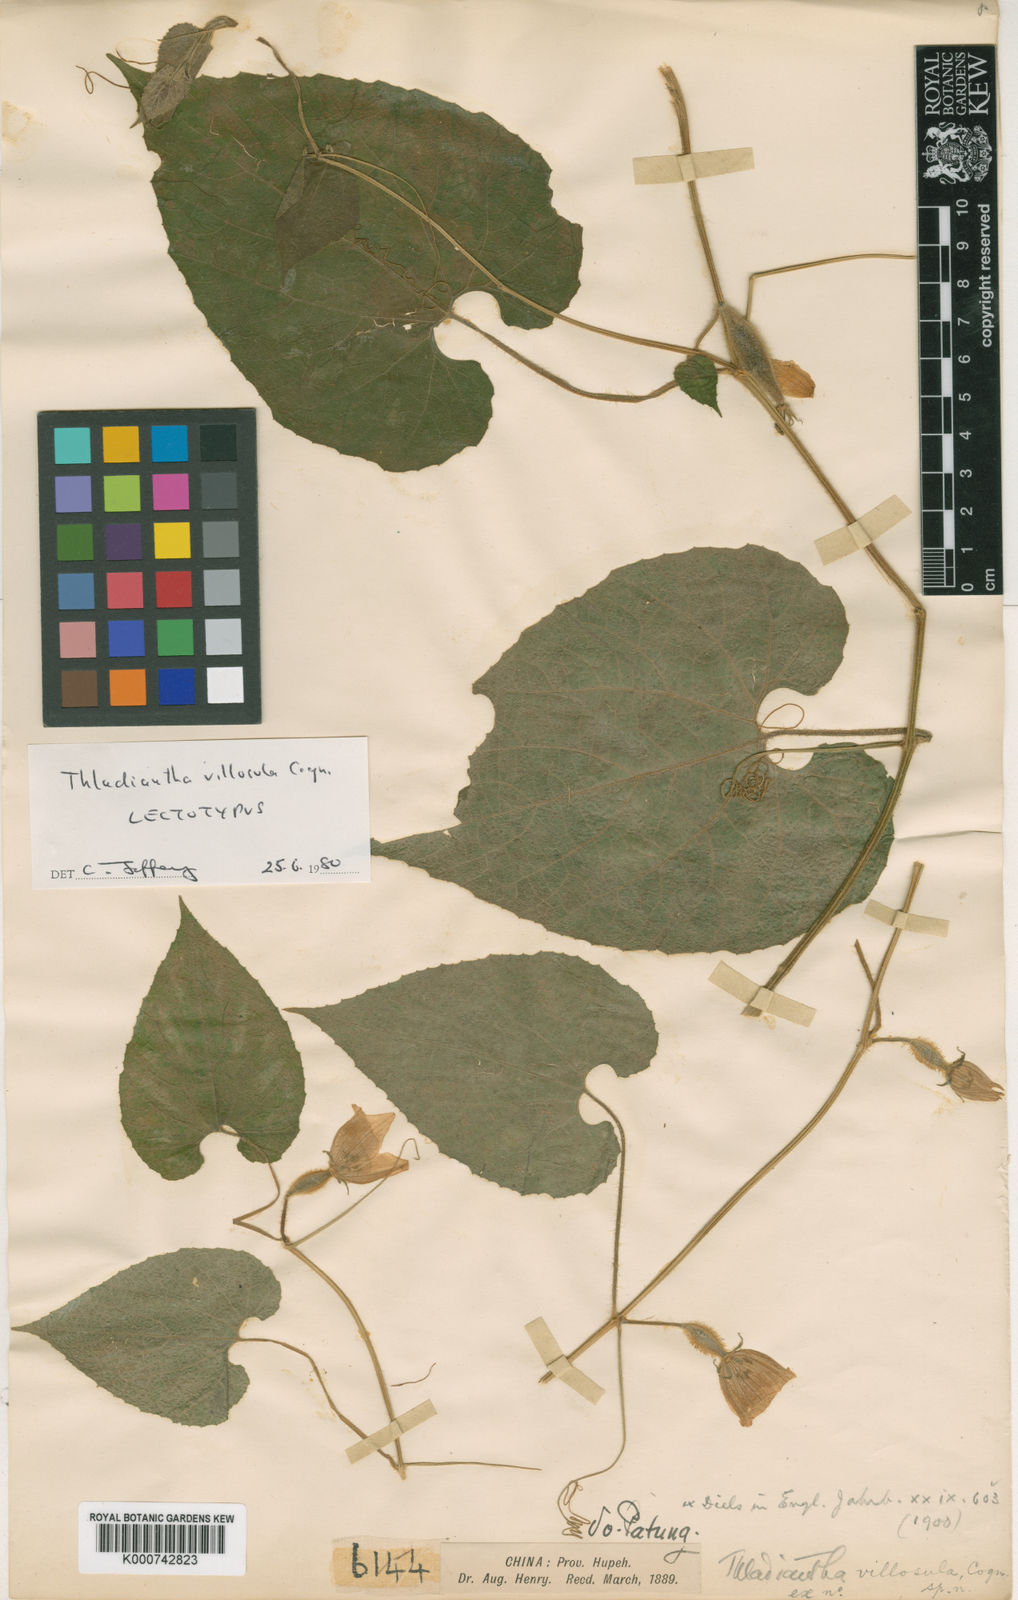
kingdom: Plantae
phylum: Tracheophyta
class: Magnoliopsida
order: Cucurbitales
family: Cucurbitaceae
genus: Thladiantha
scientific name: Thladiantha villosula
